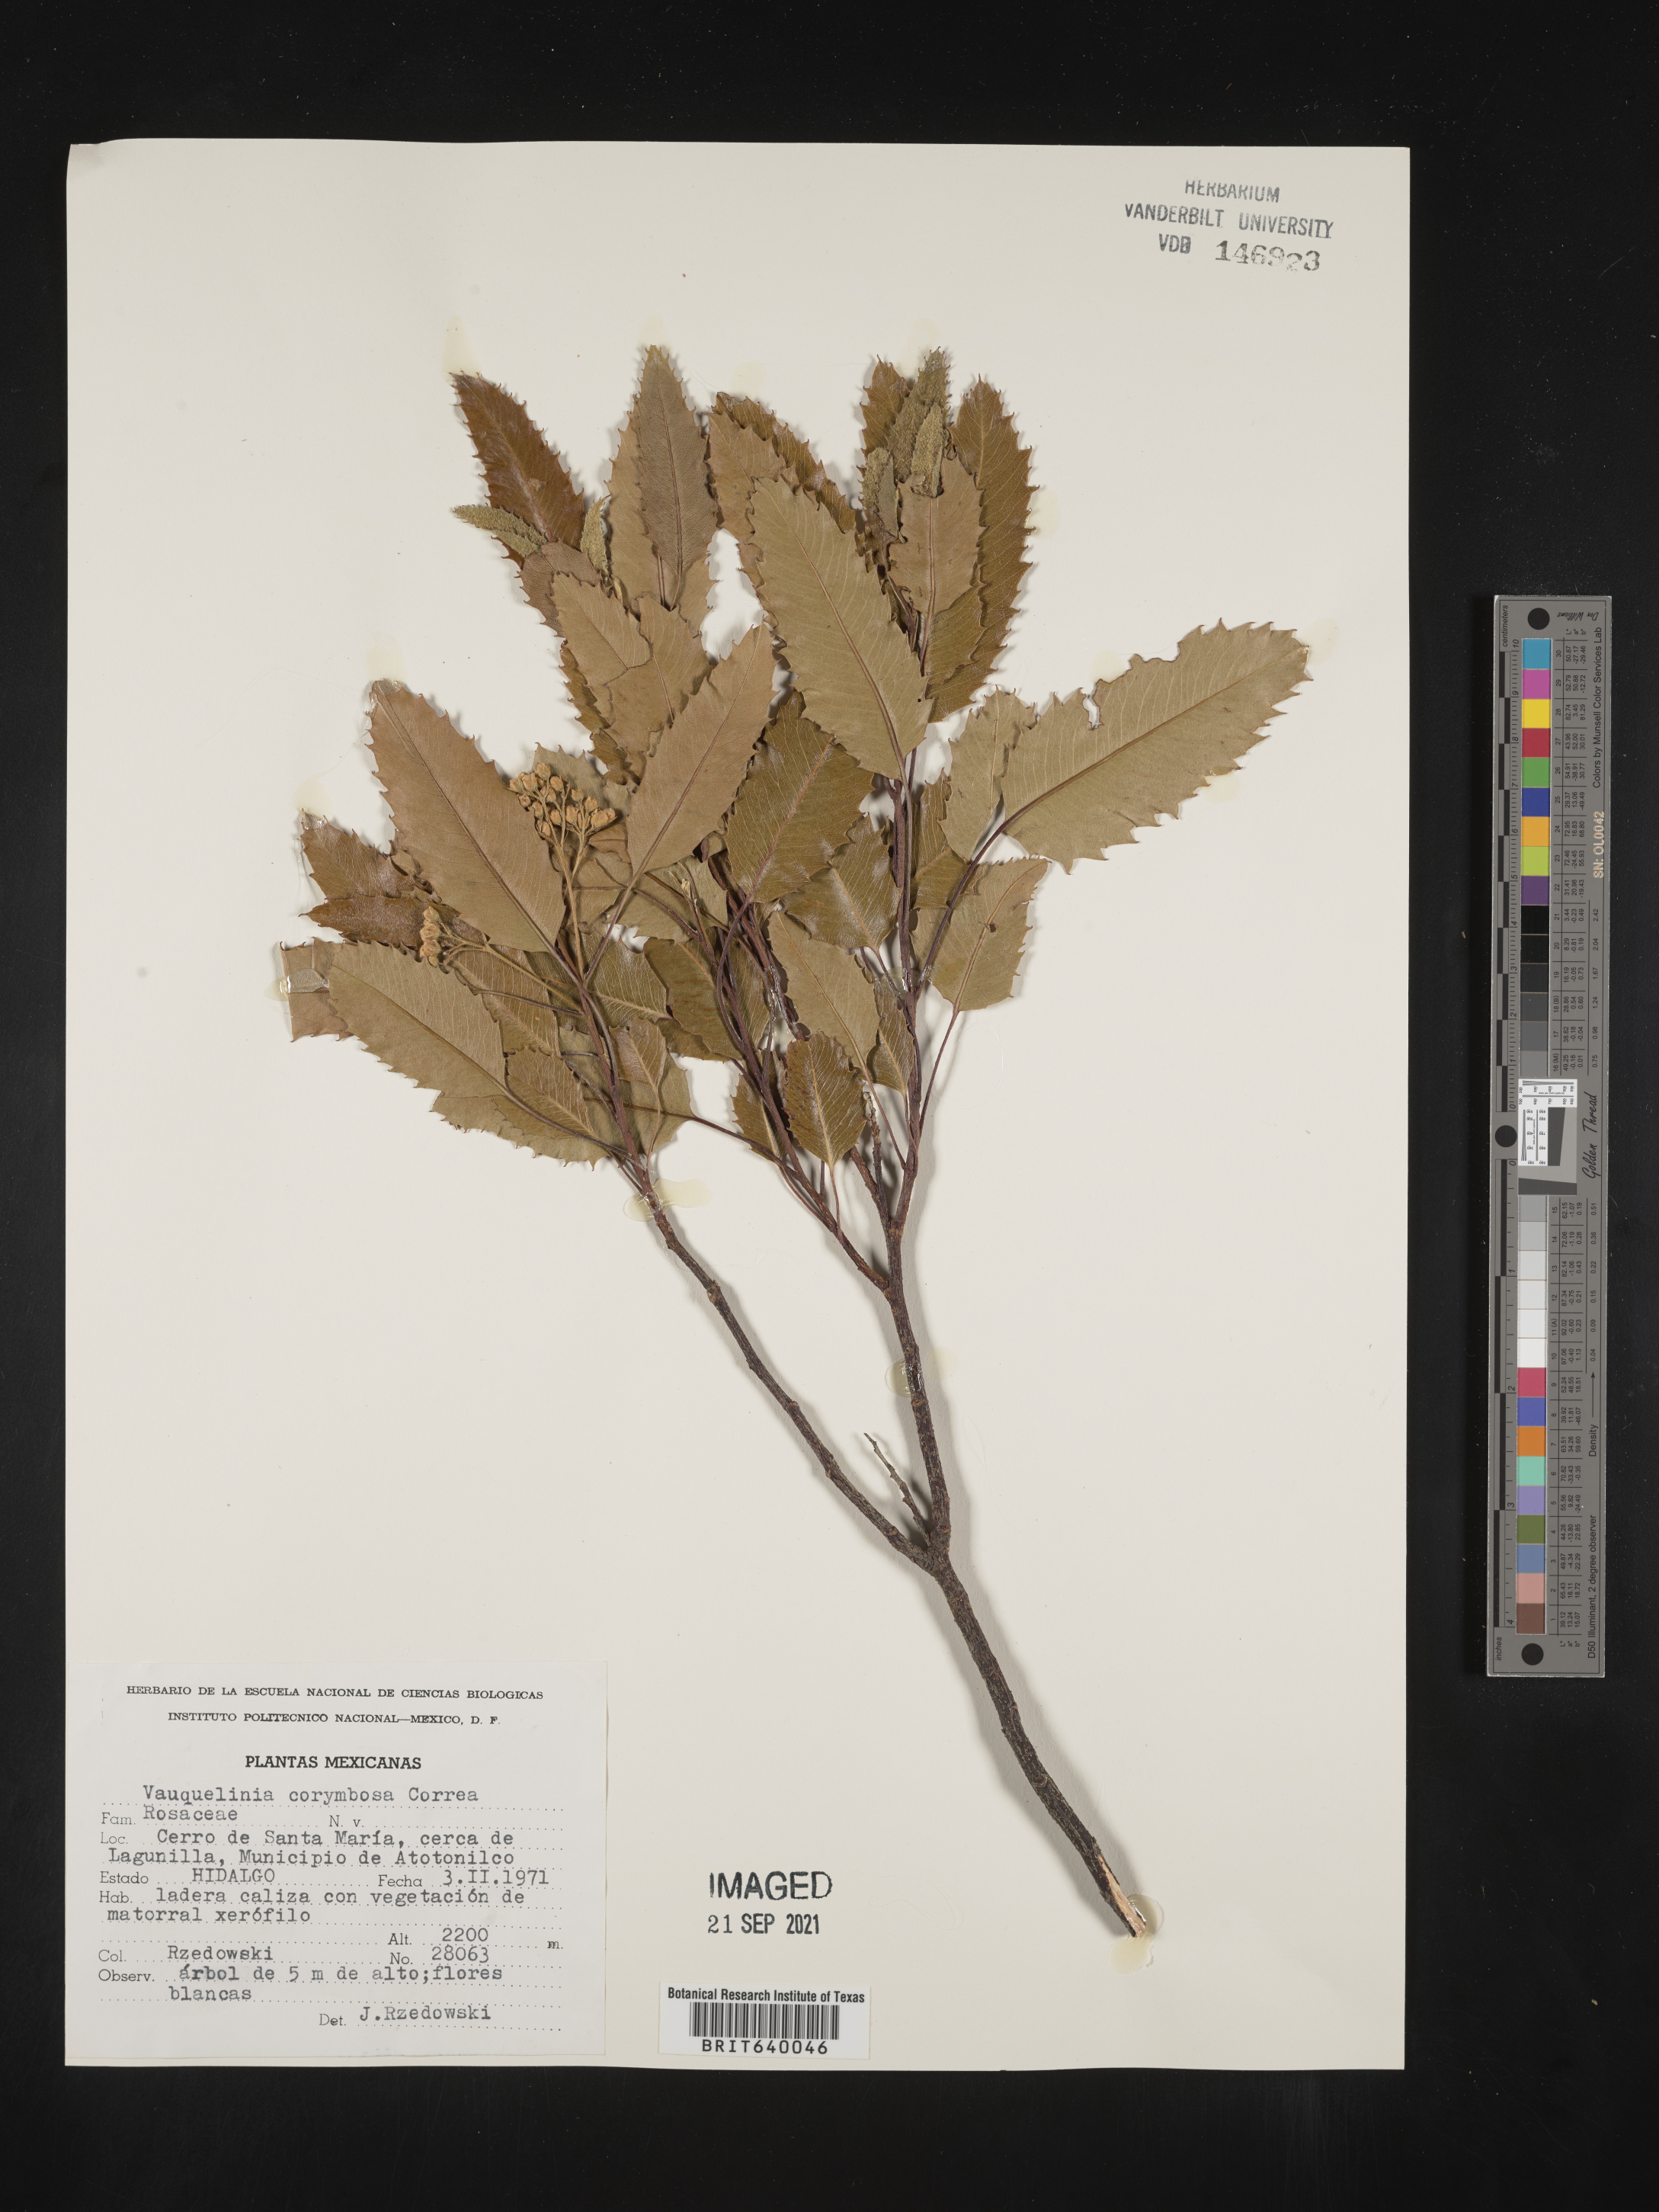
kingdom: Plantae
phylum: Tracheophyta
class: Magnoliopsida
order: Rosales
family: Rosaceae
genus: Vauquelinia
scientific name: Vauquelinia
